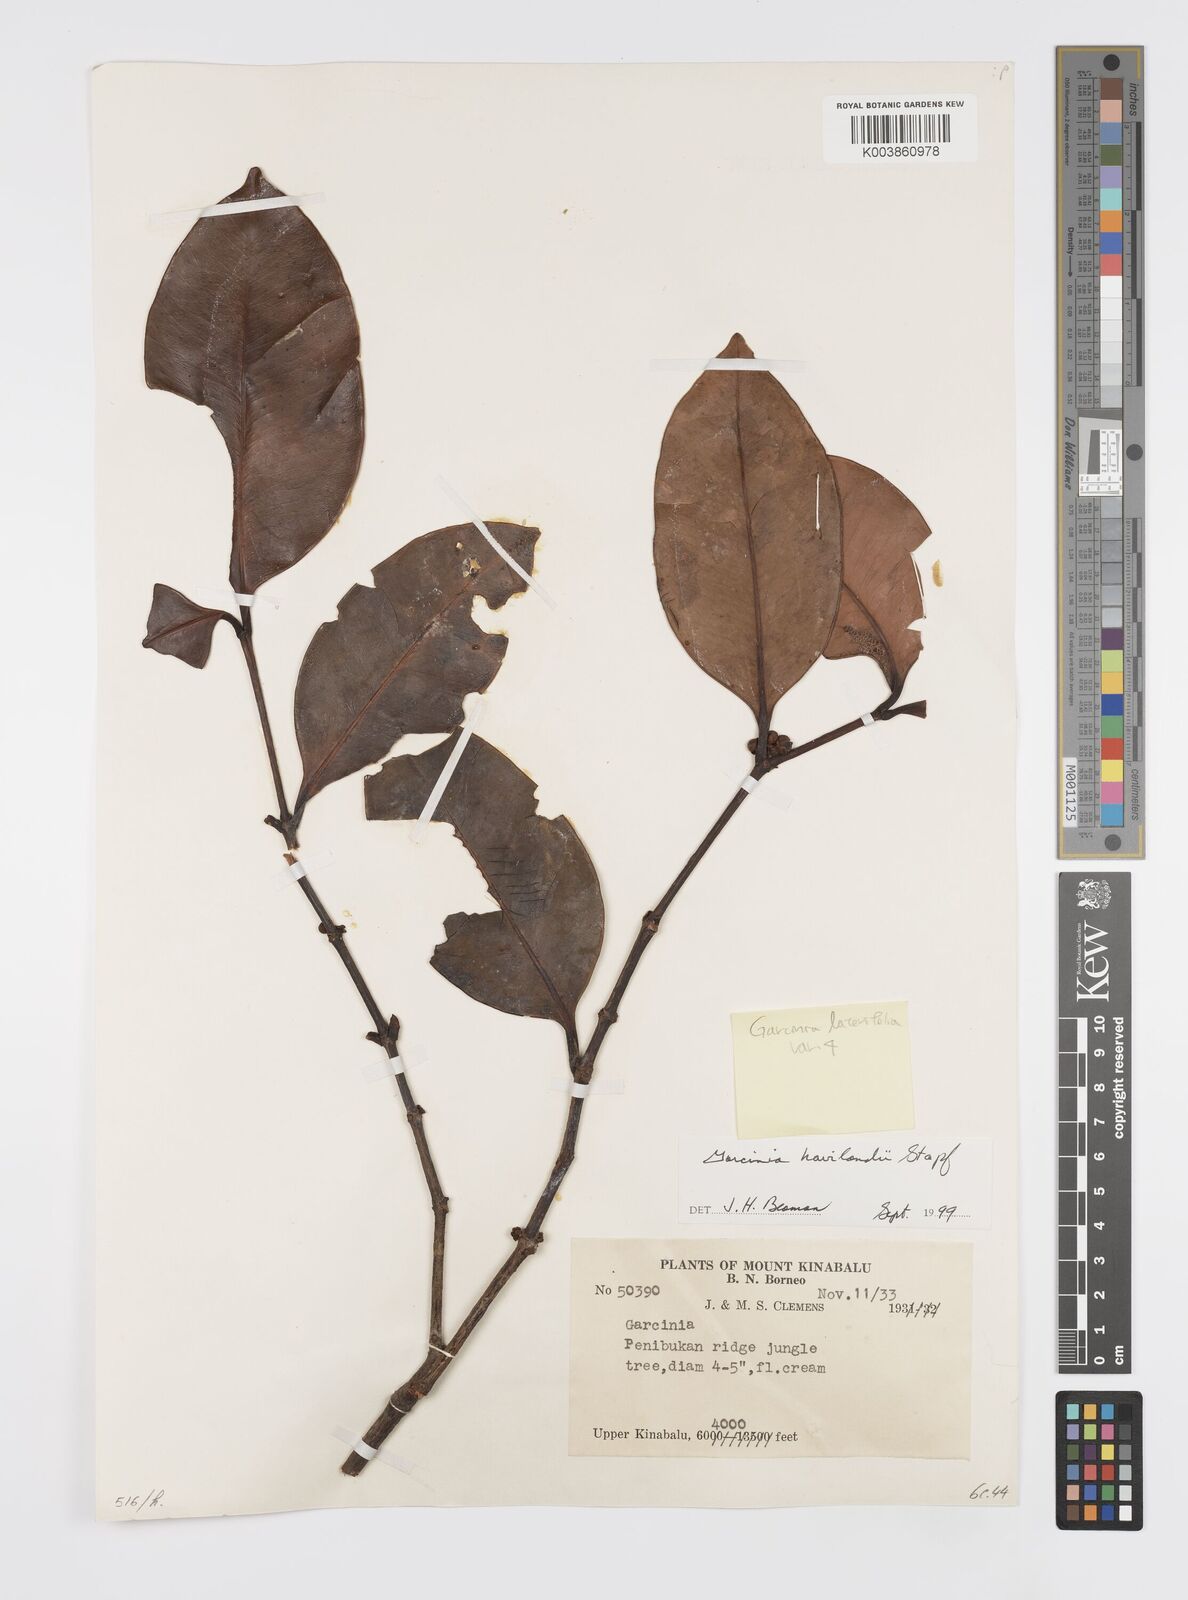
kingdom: Plantae
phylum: Tracheophyta
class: Magnoliopsida
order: Malpighiales
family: Clusiaceae
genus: Garcinia
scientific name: Garcinia lateriflora
